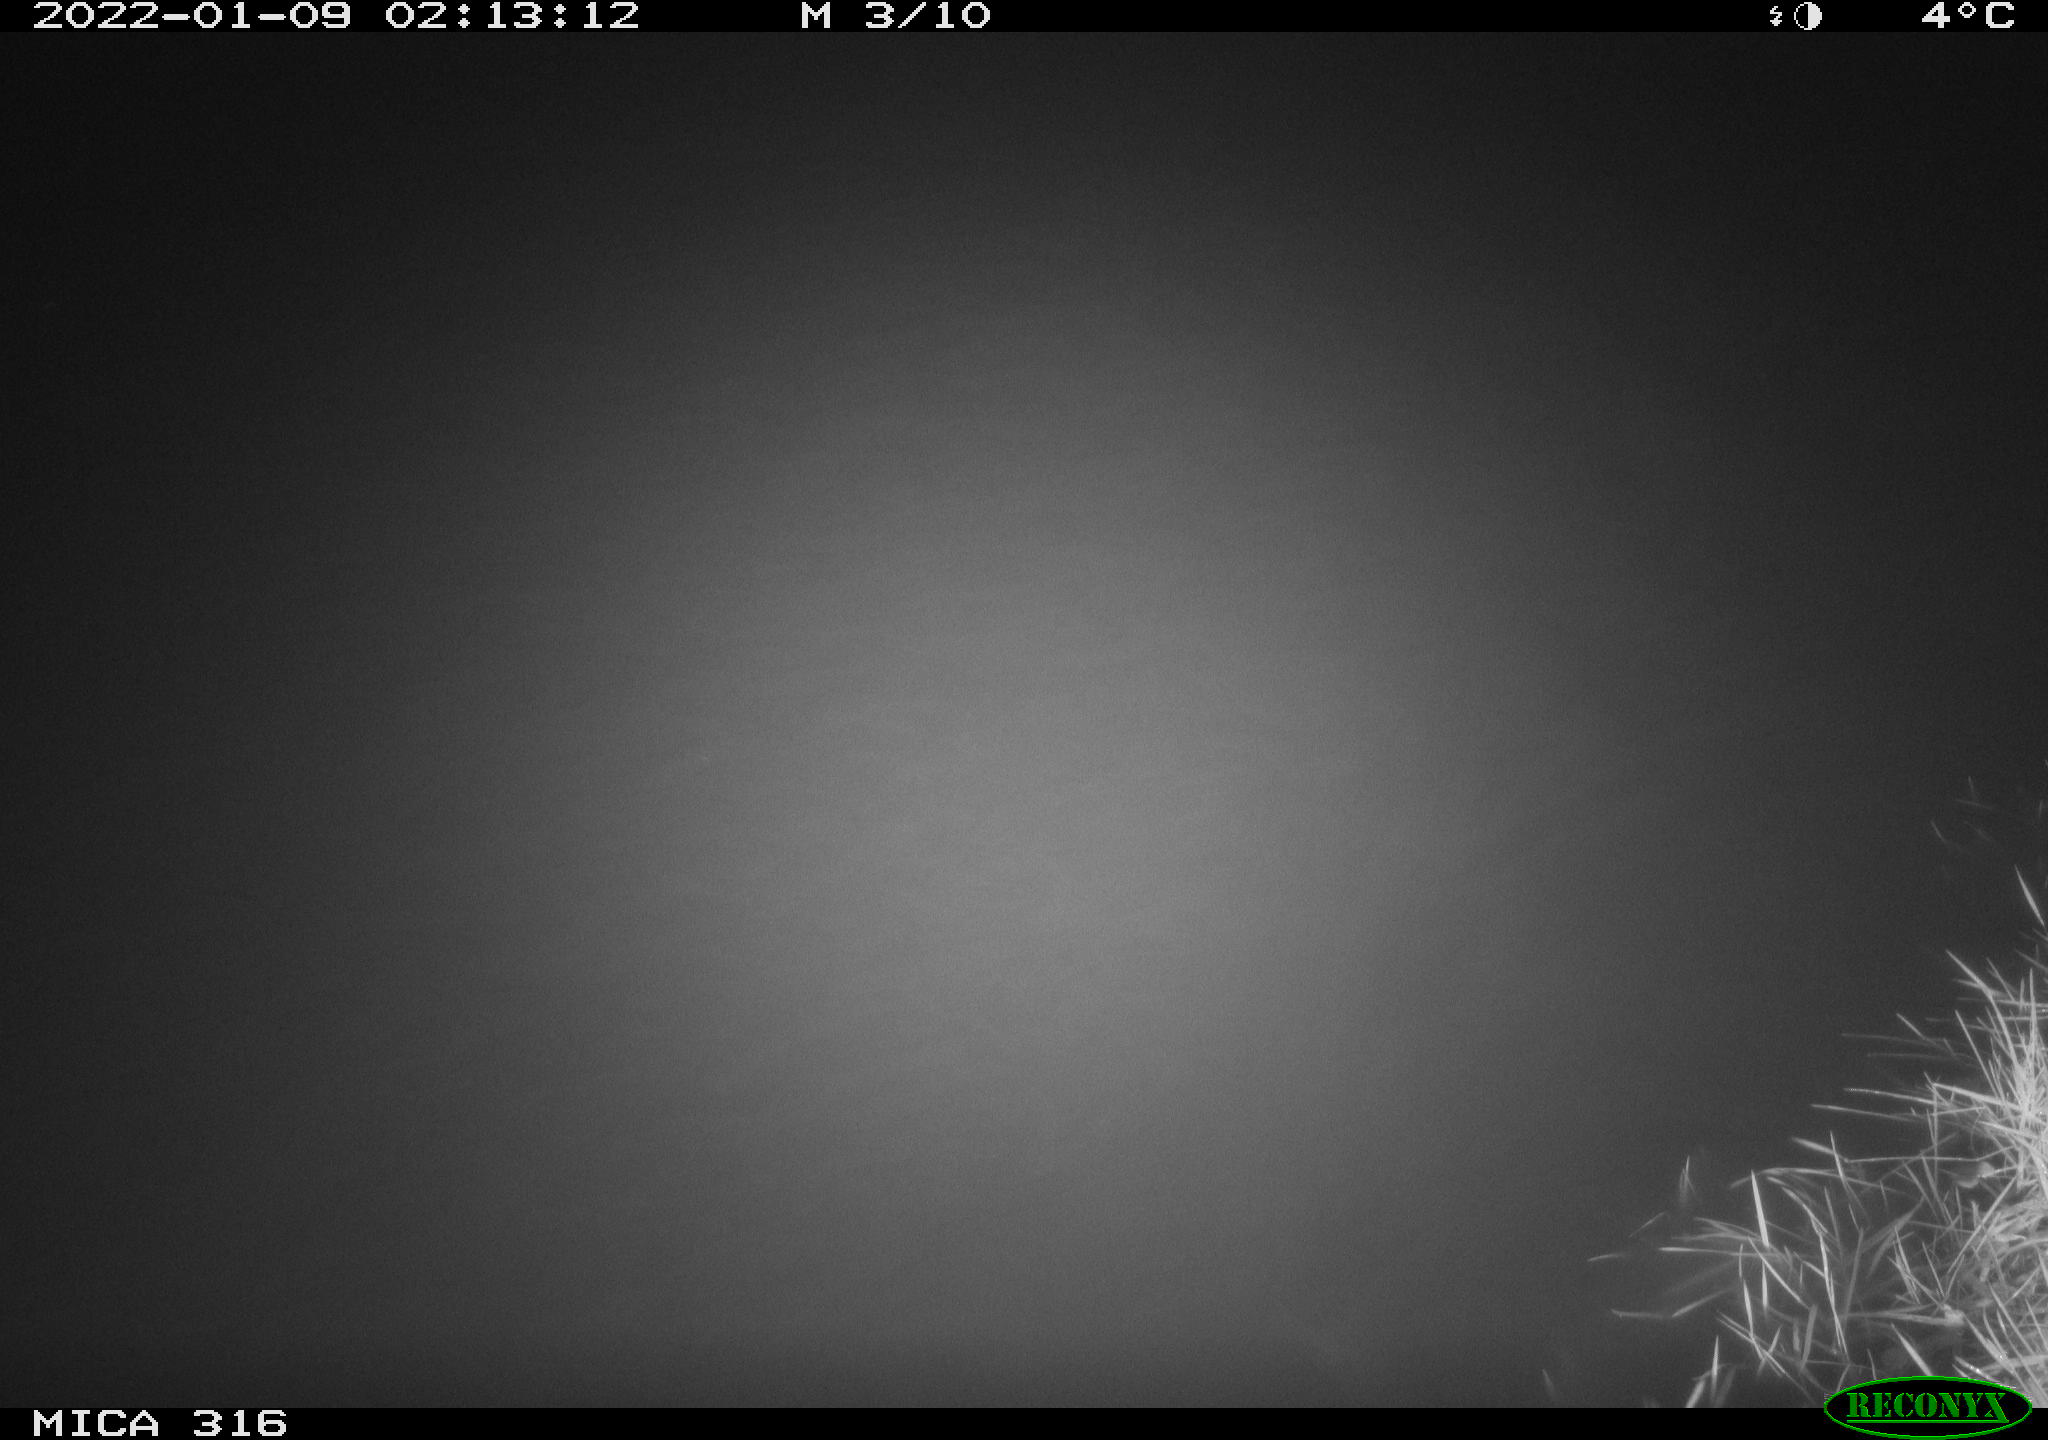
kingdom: Animalia
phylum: Chordata
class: Mammalia
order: Rodentia
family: Muridae
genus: Rattus
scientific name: Rattus norvegicus
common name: Brown rat
